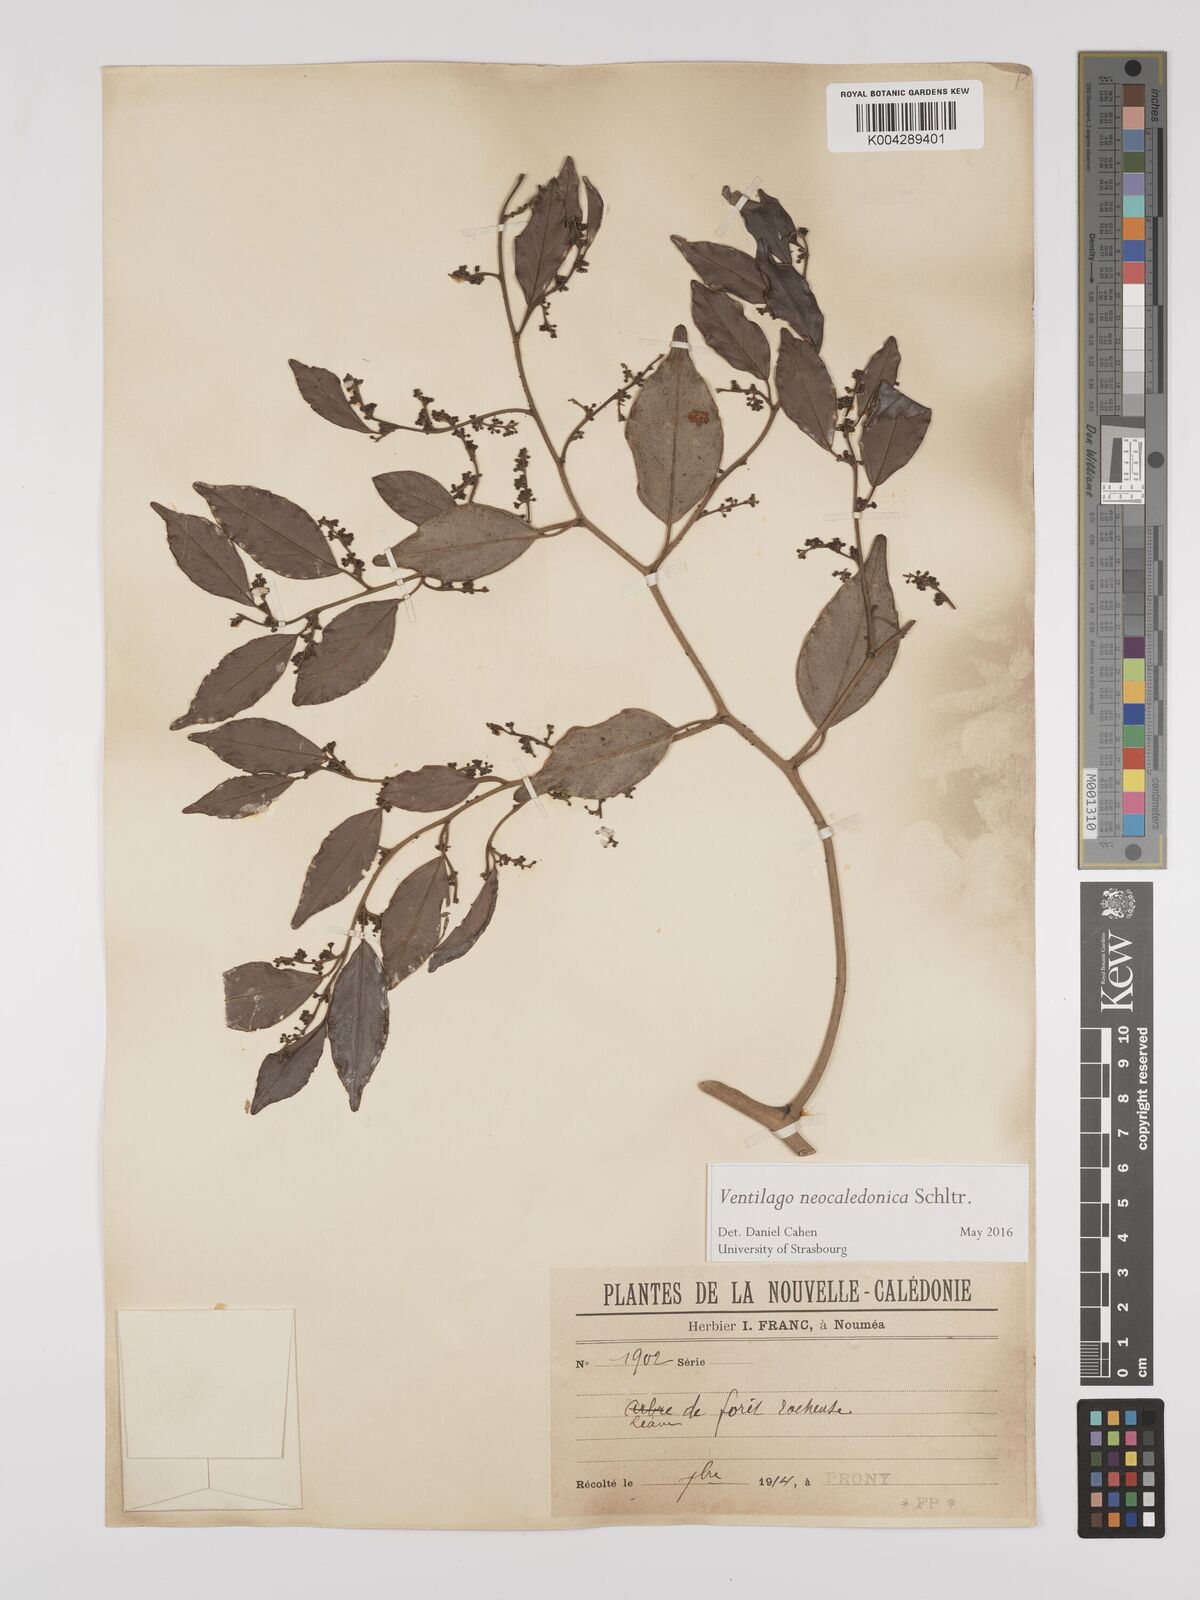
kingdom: Plantae
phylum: Tracheophyta
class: Magnoliopsida
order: Rosales
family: Rhamnaceae
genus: Ventilago
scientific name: Ventilago neocaledonica
